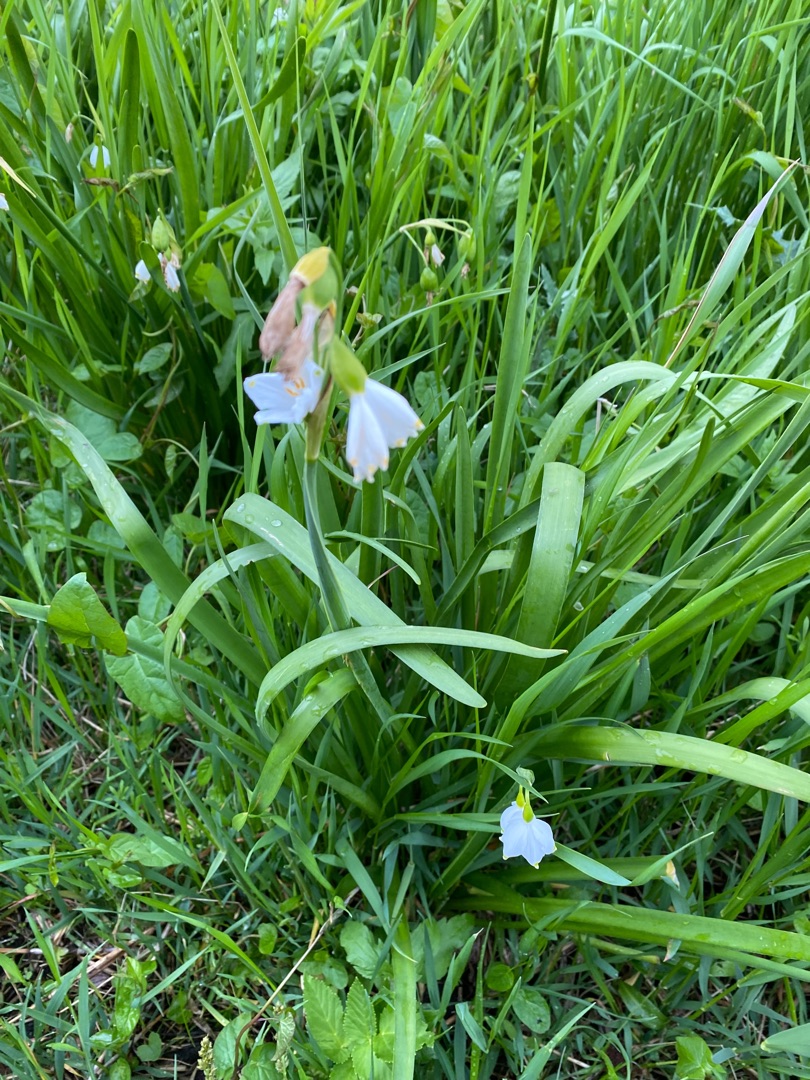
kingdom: Plantae
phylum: Tracheophyta
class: Liliopsida
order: Asparagales
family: Amaryllidaceae
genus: Leucojum
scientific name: Leucojum aestivum
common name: Sommer-hvidblomme
